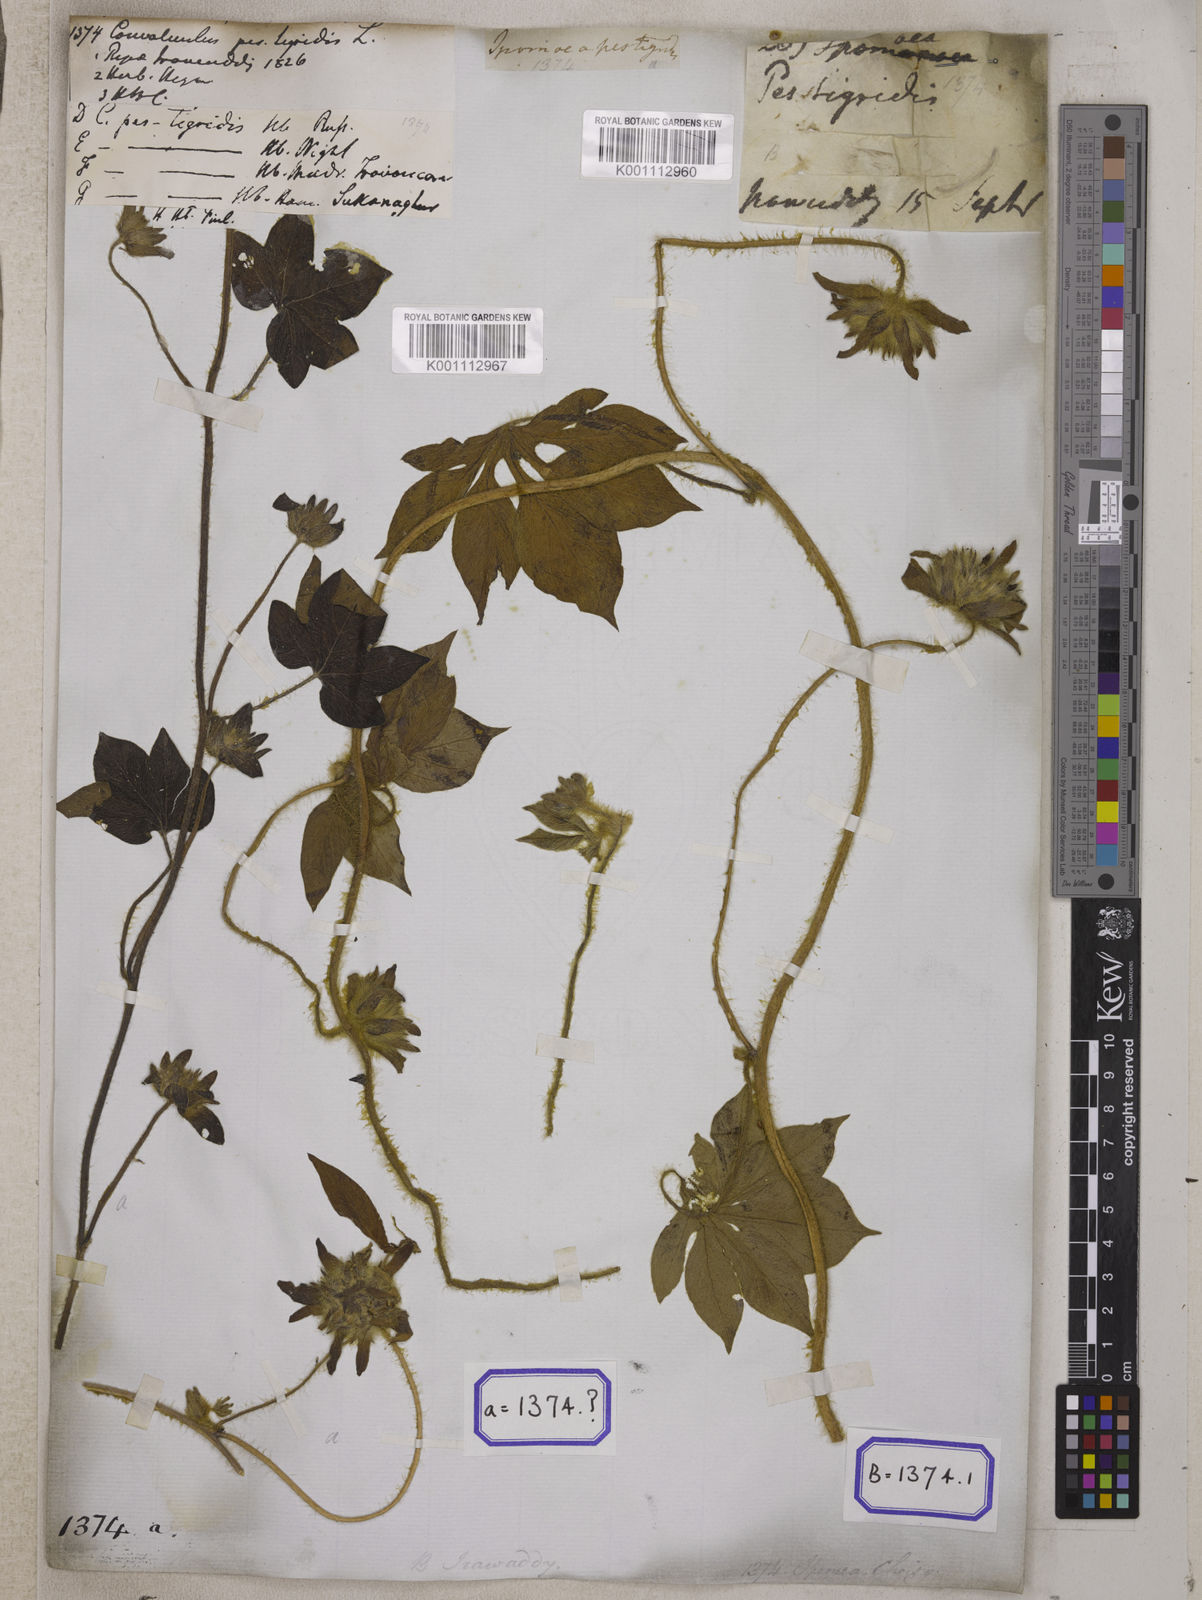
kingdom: Plantae
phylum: Tracheophyta
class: Magnoliopsida
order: Solanales
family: Convolvulaceae
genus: Ipomoea
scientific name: Ipomoea pes-tigridis
